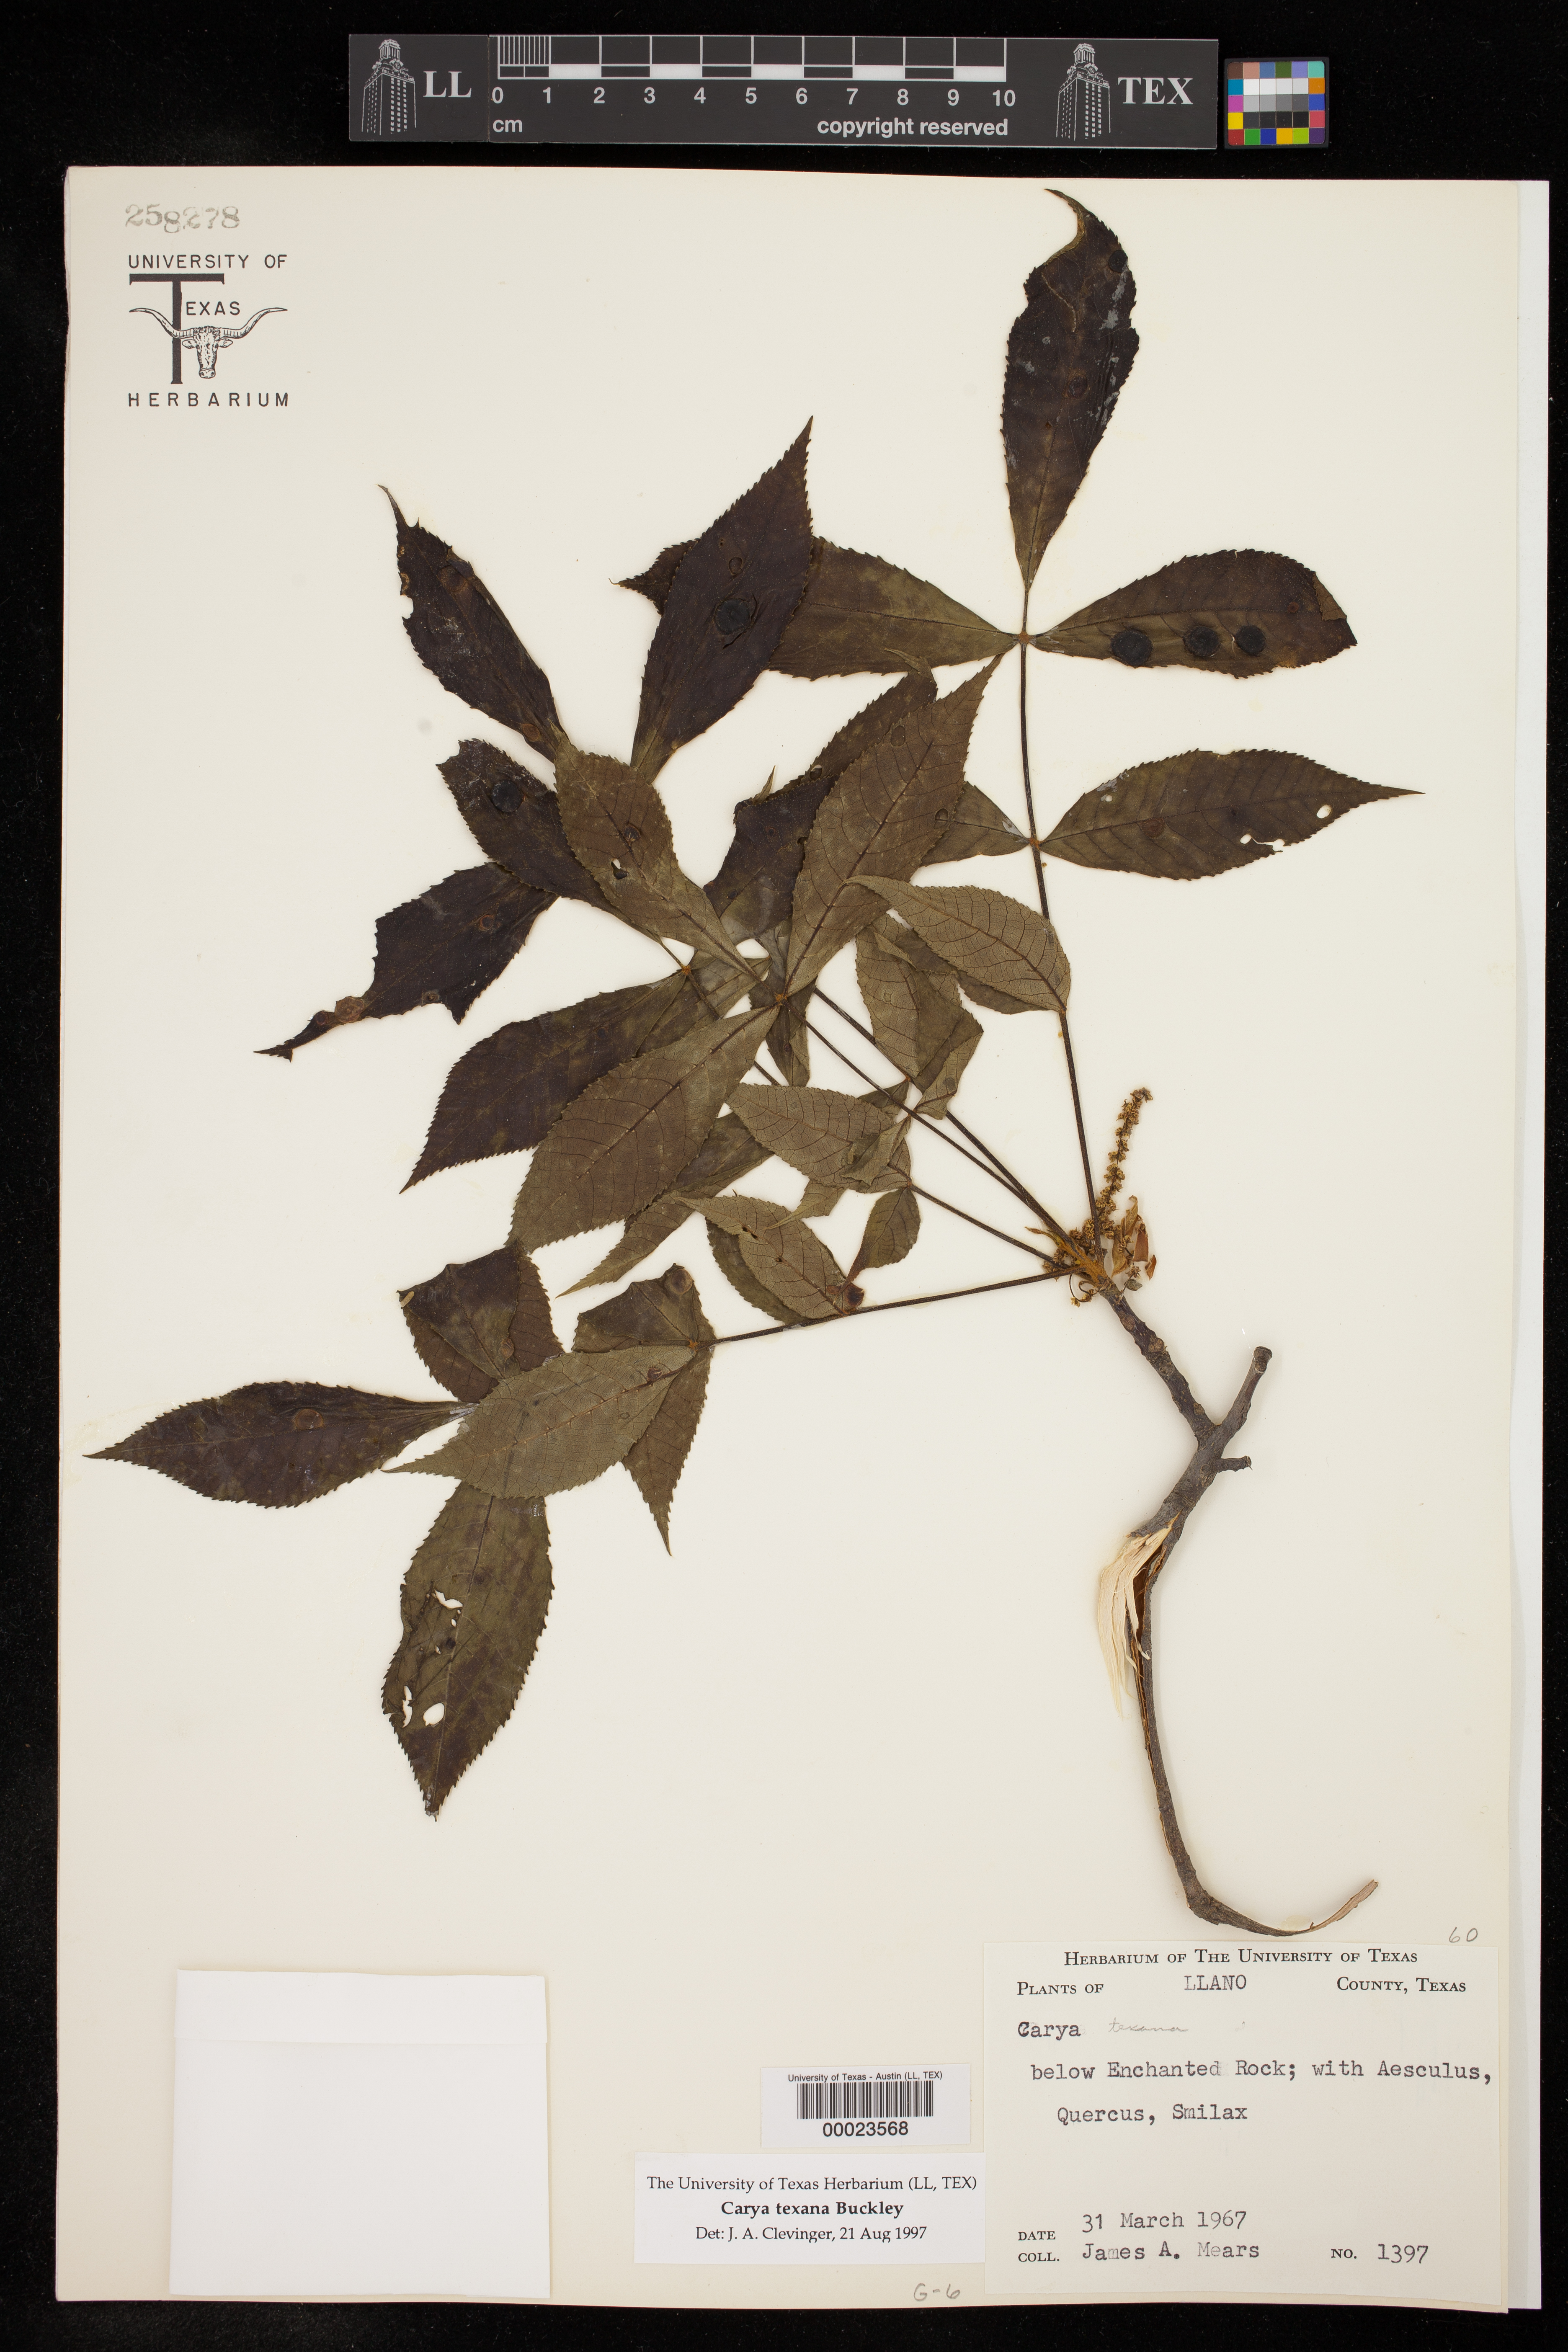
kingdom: Plantae
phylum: Tracheophyta
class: Magnoliopsida
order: Fagales
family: Juglandaceae
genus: Carya
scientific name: Carya texana
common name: Black hickory
